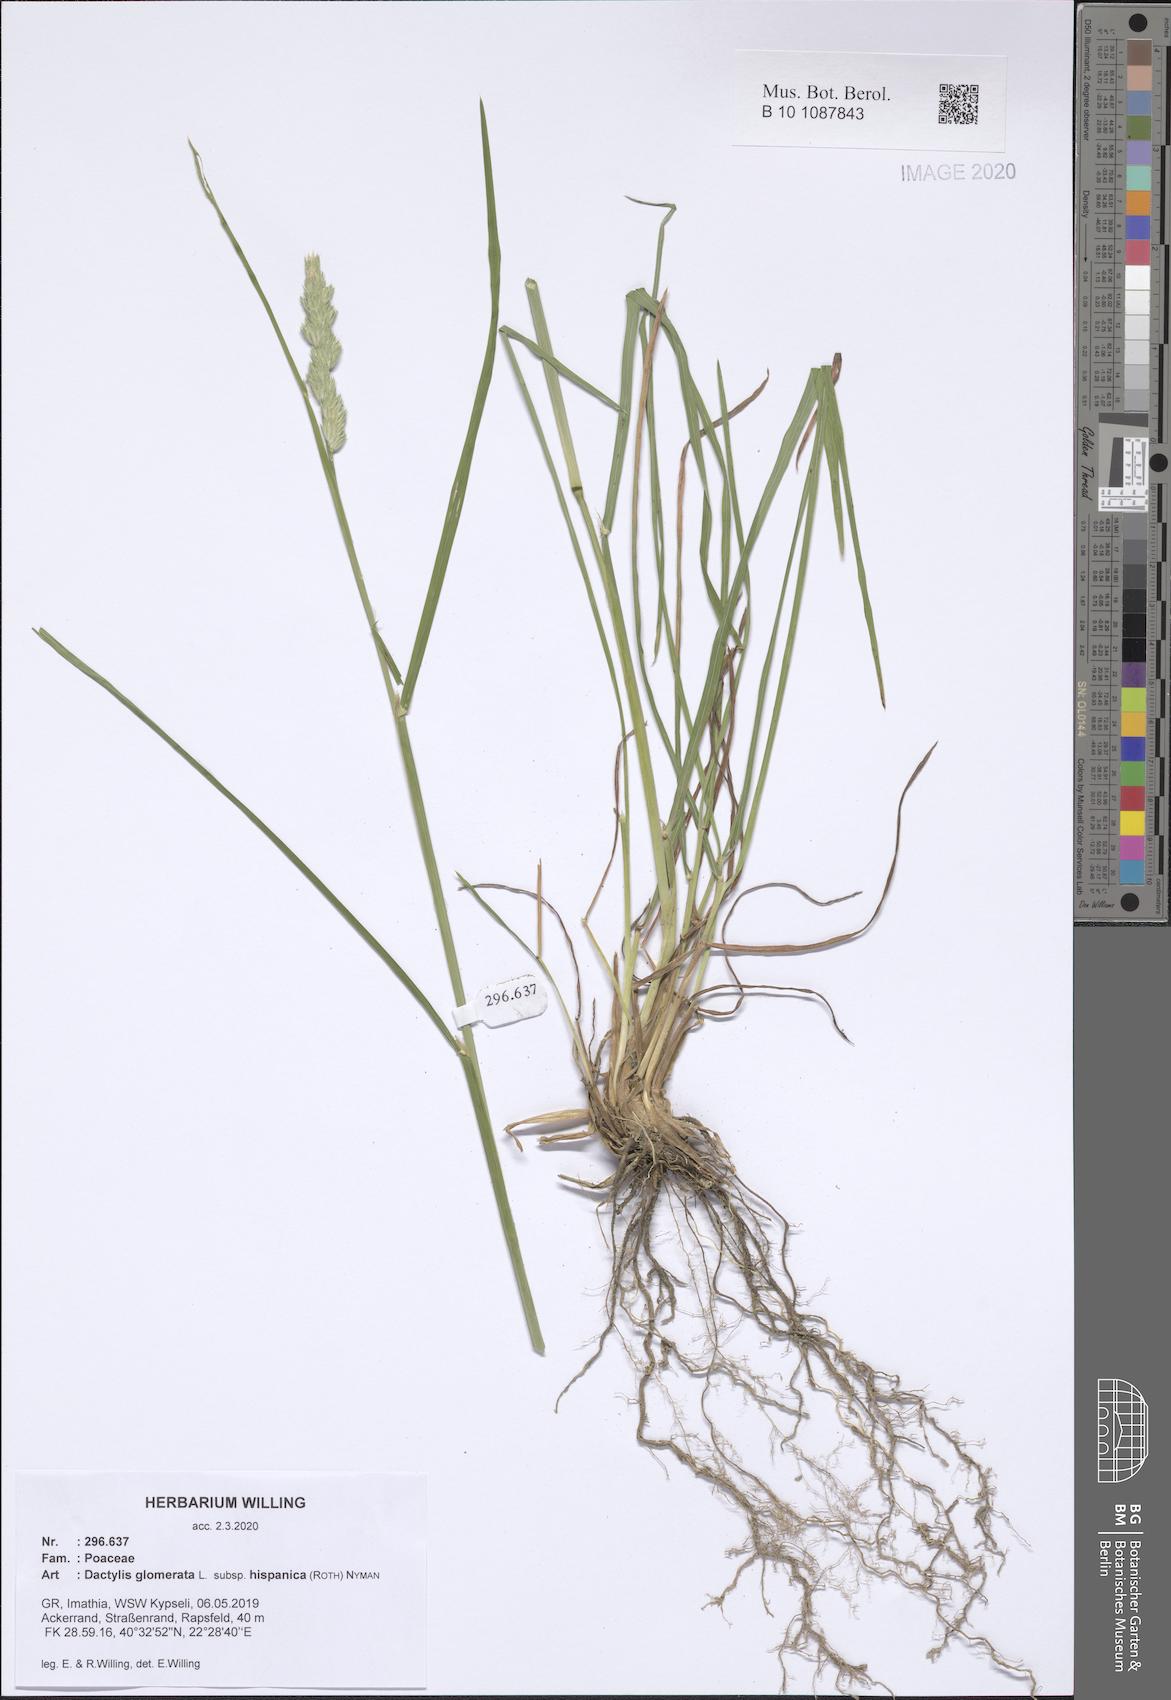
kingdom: Plantae
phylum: Tracheophyta
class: Liliopsida
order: Poales
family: Poaceae
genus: Dactylis
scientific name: Dactylis glomerata
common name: Orchardgrass
